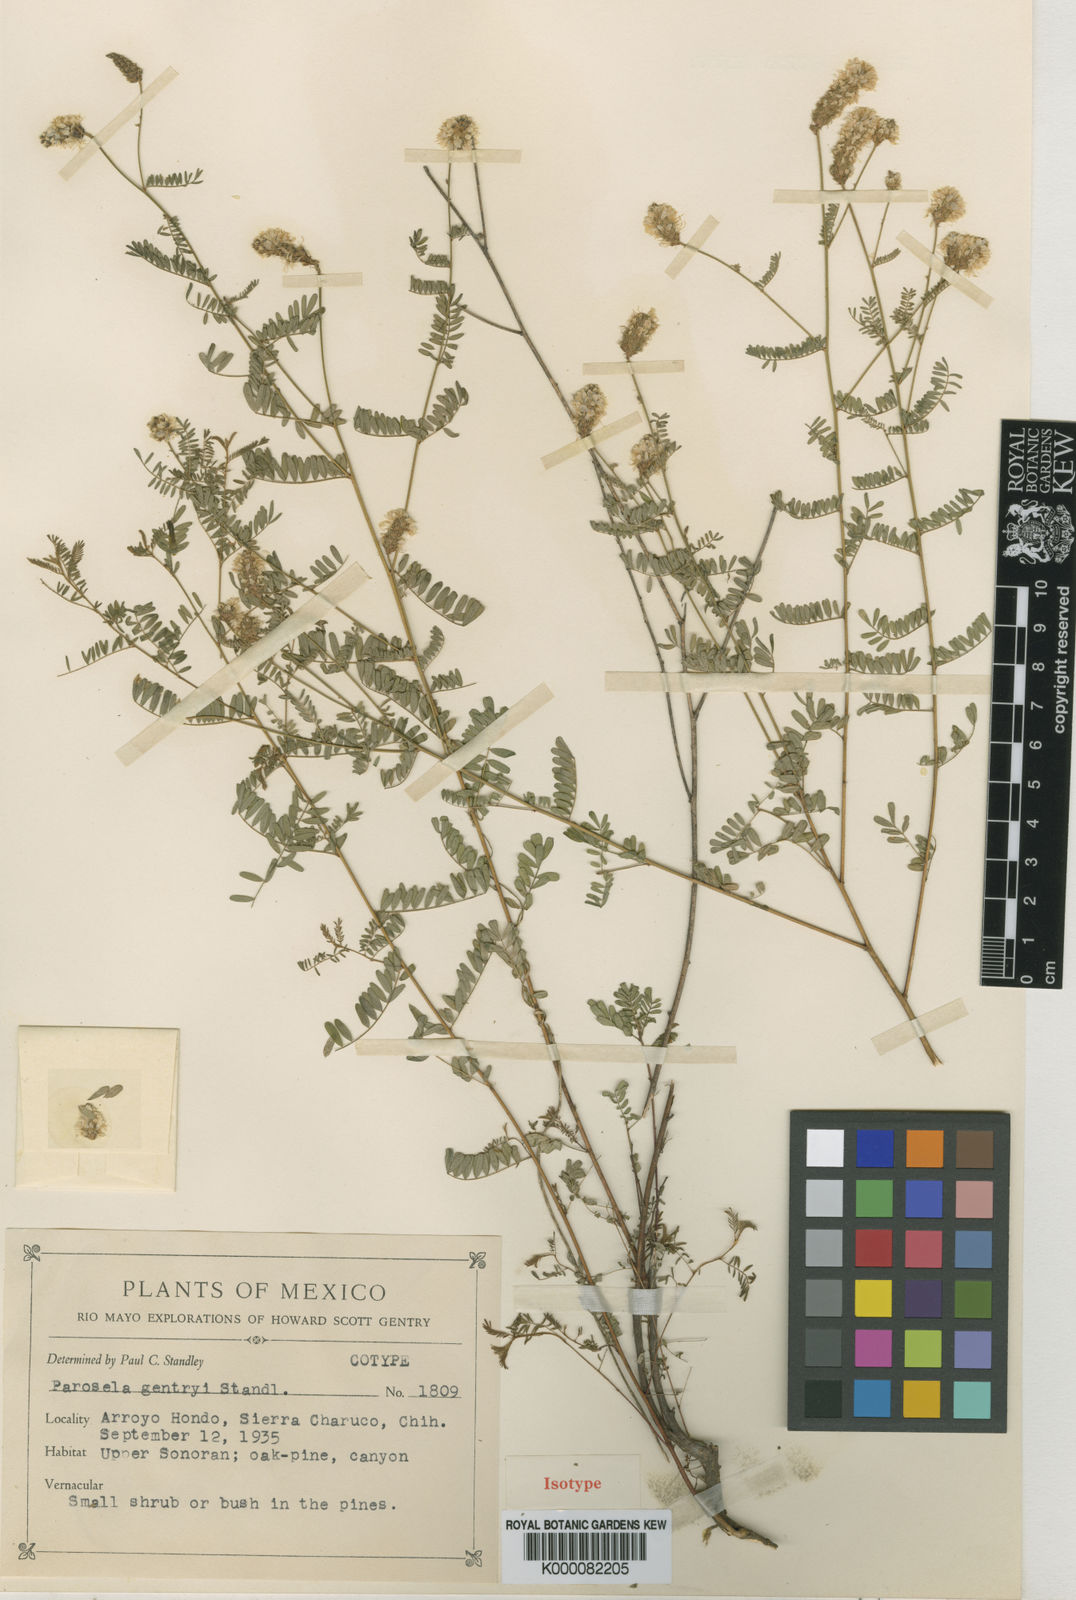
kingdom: Plantae
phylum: Tracheophyta
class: Magnoliopsida
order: Fabales
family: Fabaceae
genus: Dalea
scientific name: Dalea albiflora
